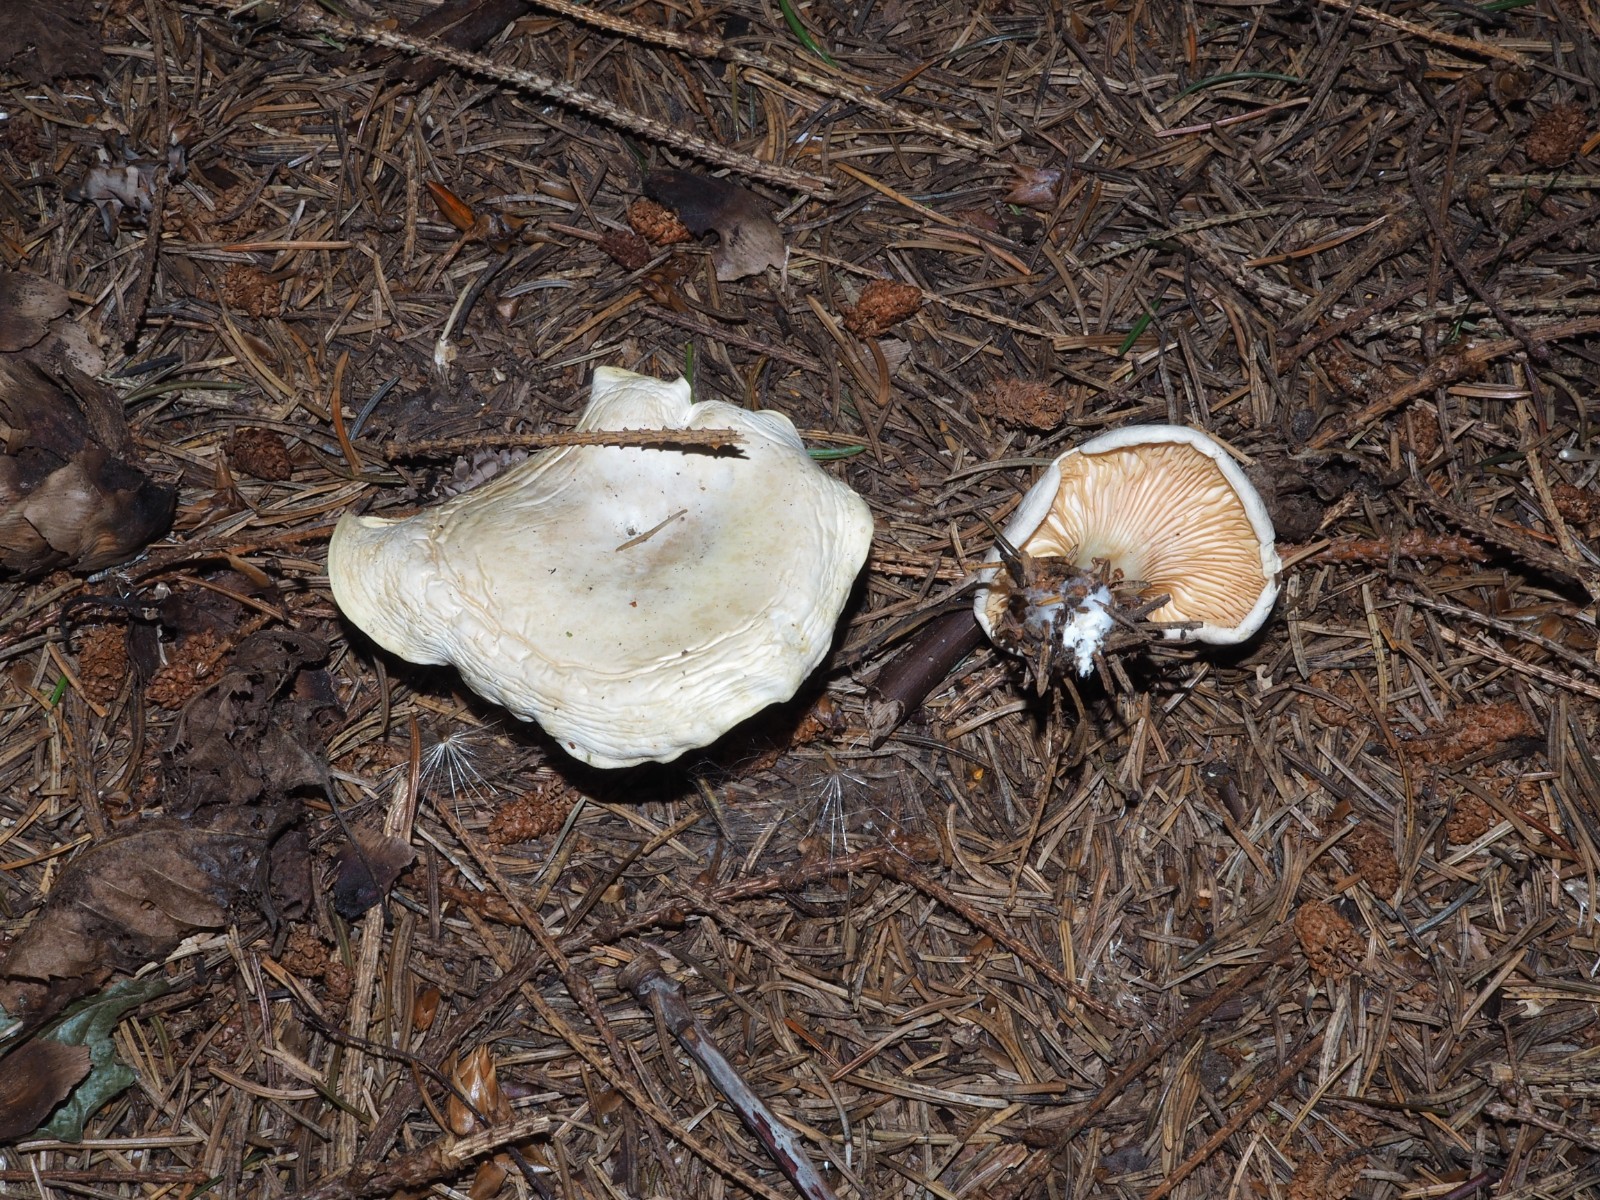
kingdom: Fungi
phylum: Basidiomycota
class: Agaricomycetes
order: Agaricales
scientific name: Agaricales
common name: champignonordenen
